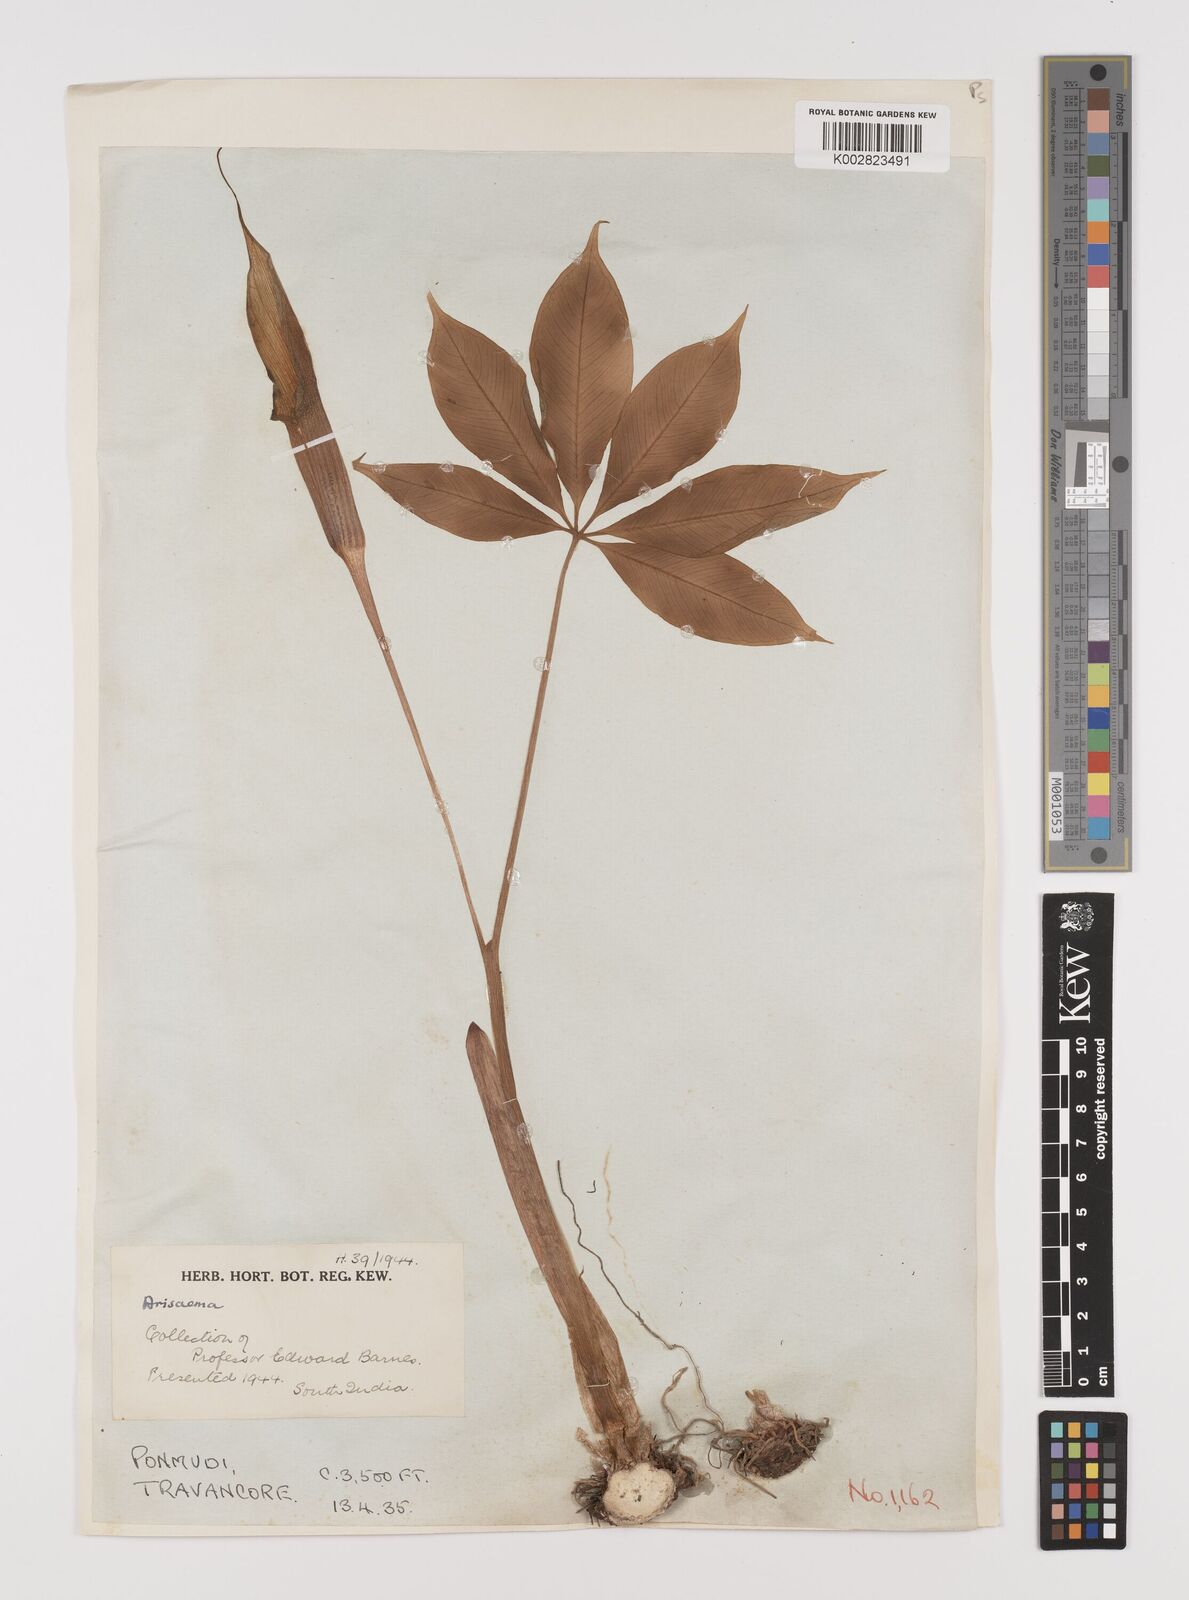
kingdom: Plantae
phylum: Tracheophyta
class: Liliopsida
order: Alismatales
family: Araceae
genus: Arisaema
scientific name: Arisaema
